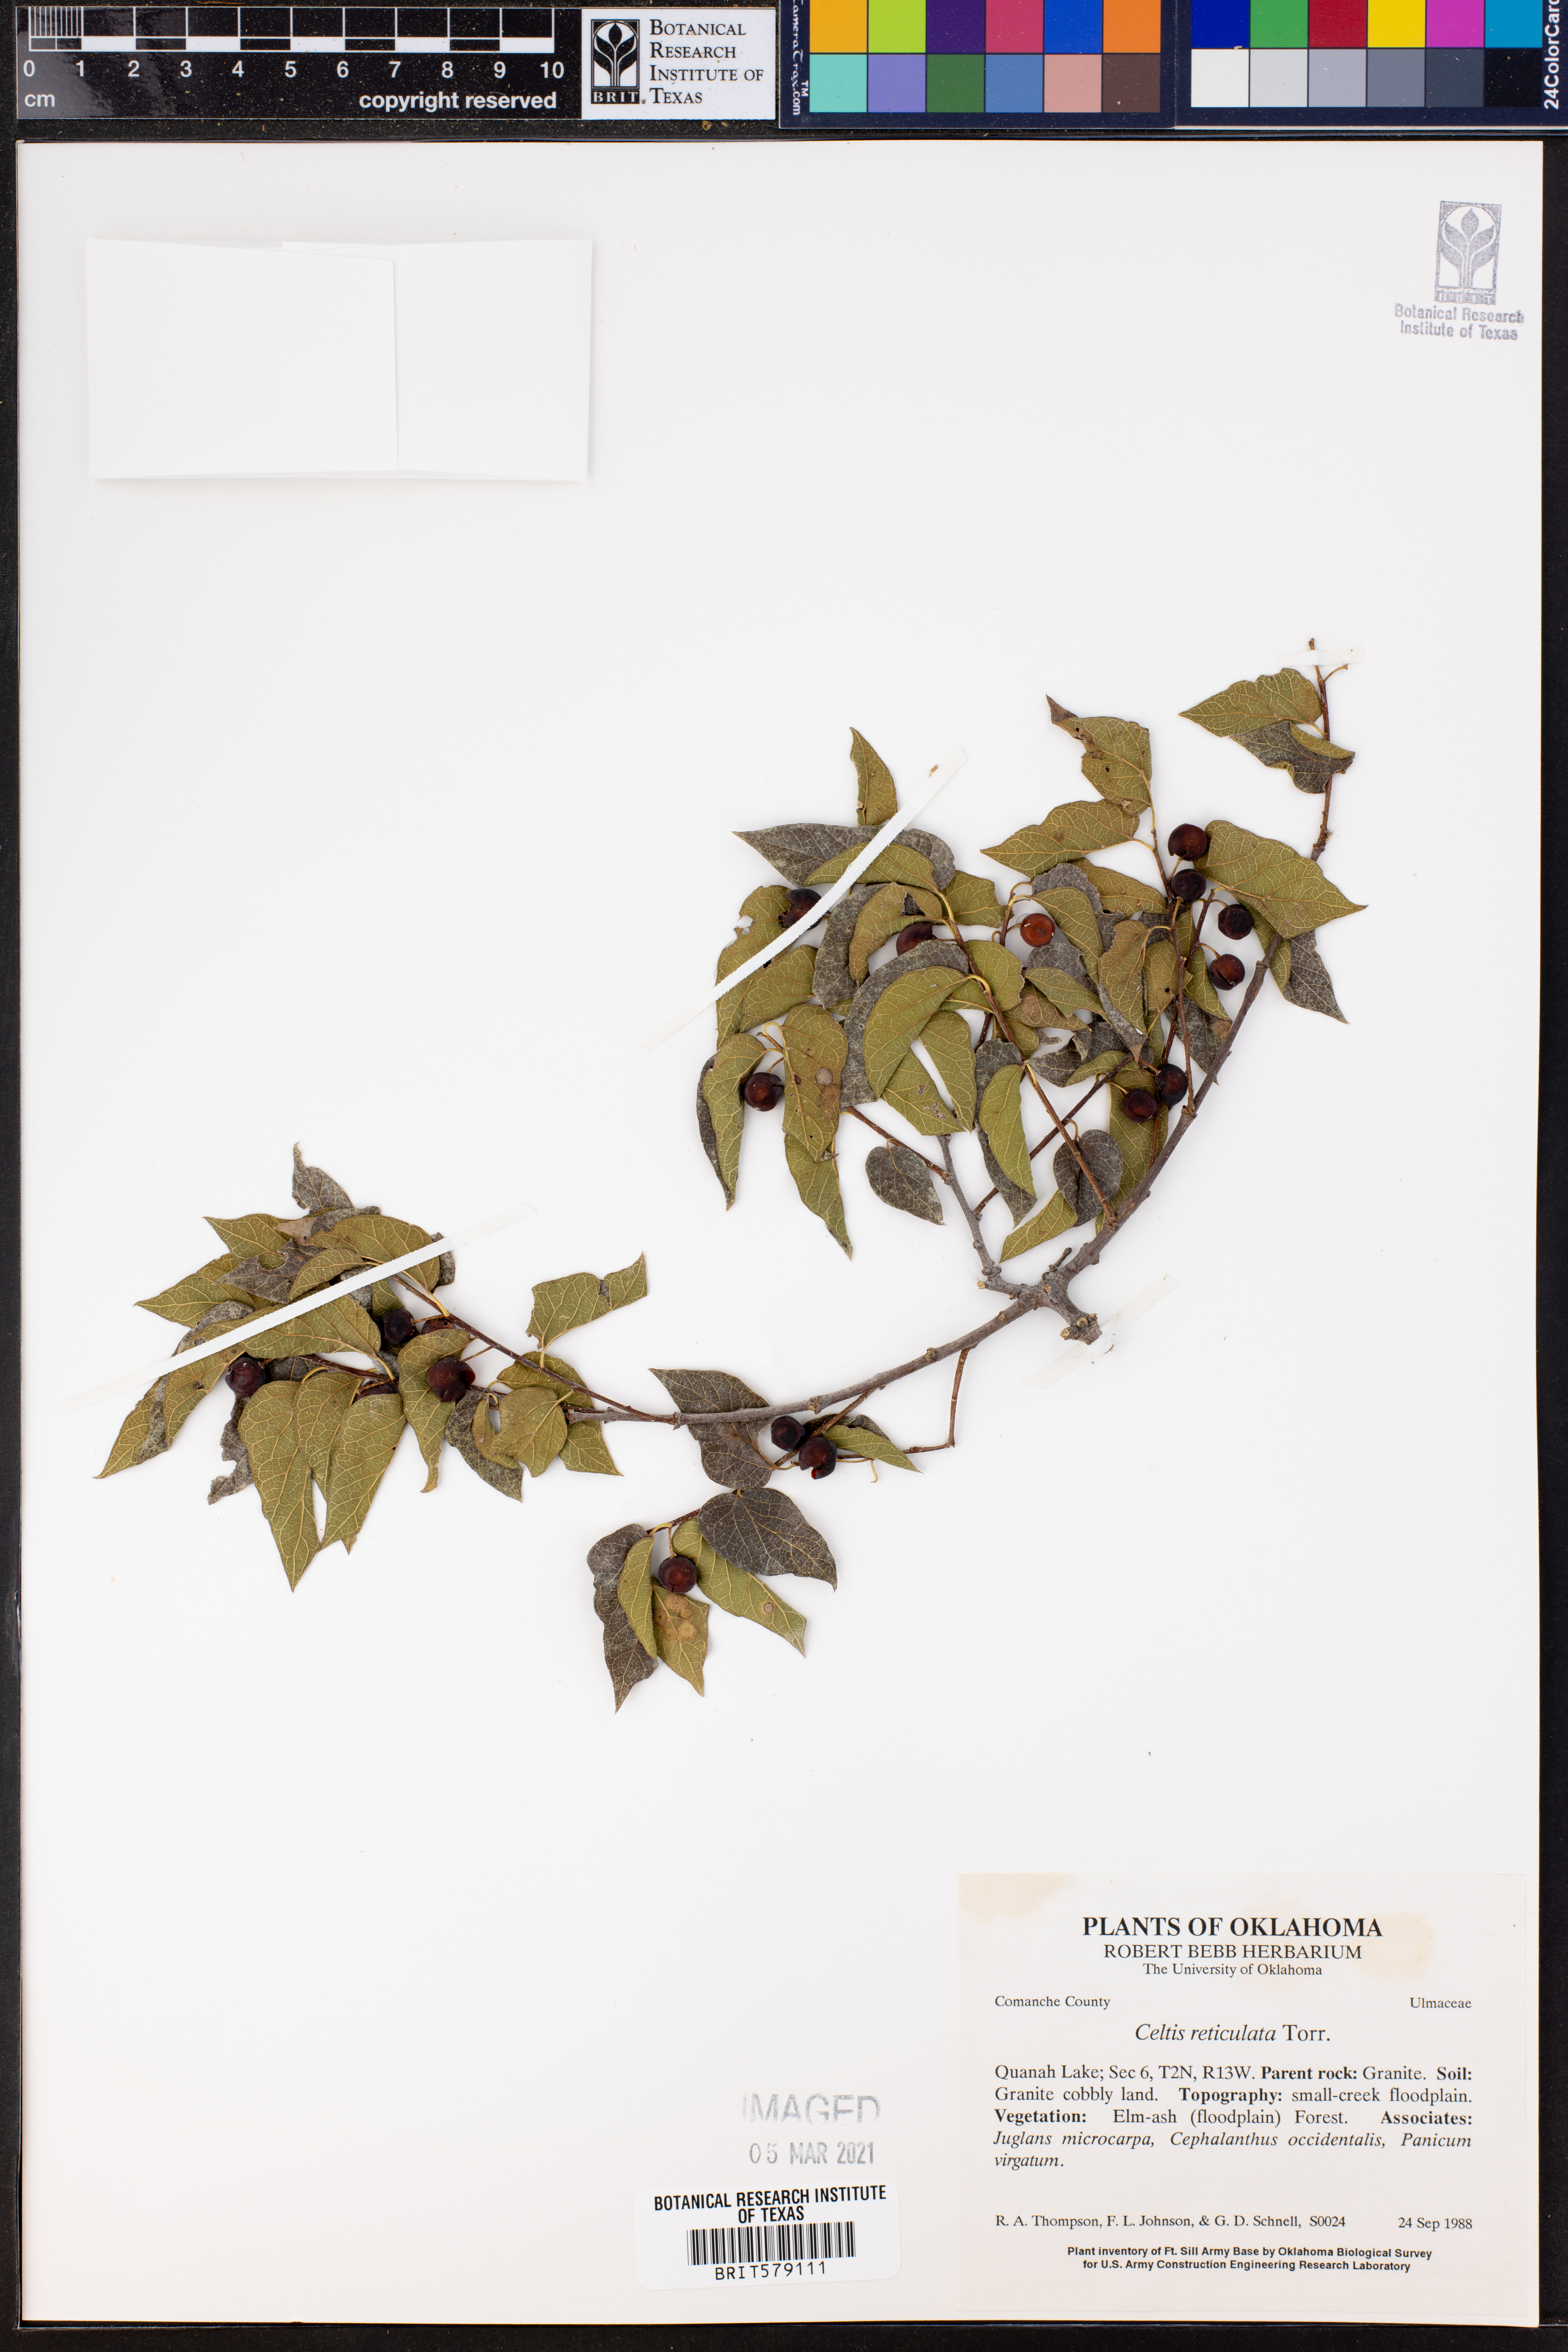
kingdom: Plantae
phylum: Tracheophyta
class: Magnoliopsida
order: Rosales
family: Cannabaceae
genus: Celtis
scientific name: Celtis reticulata
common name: Netleaf hackberry
